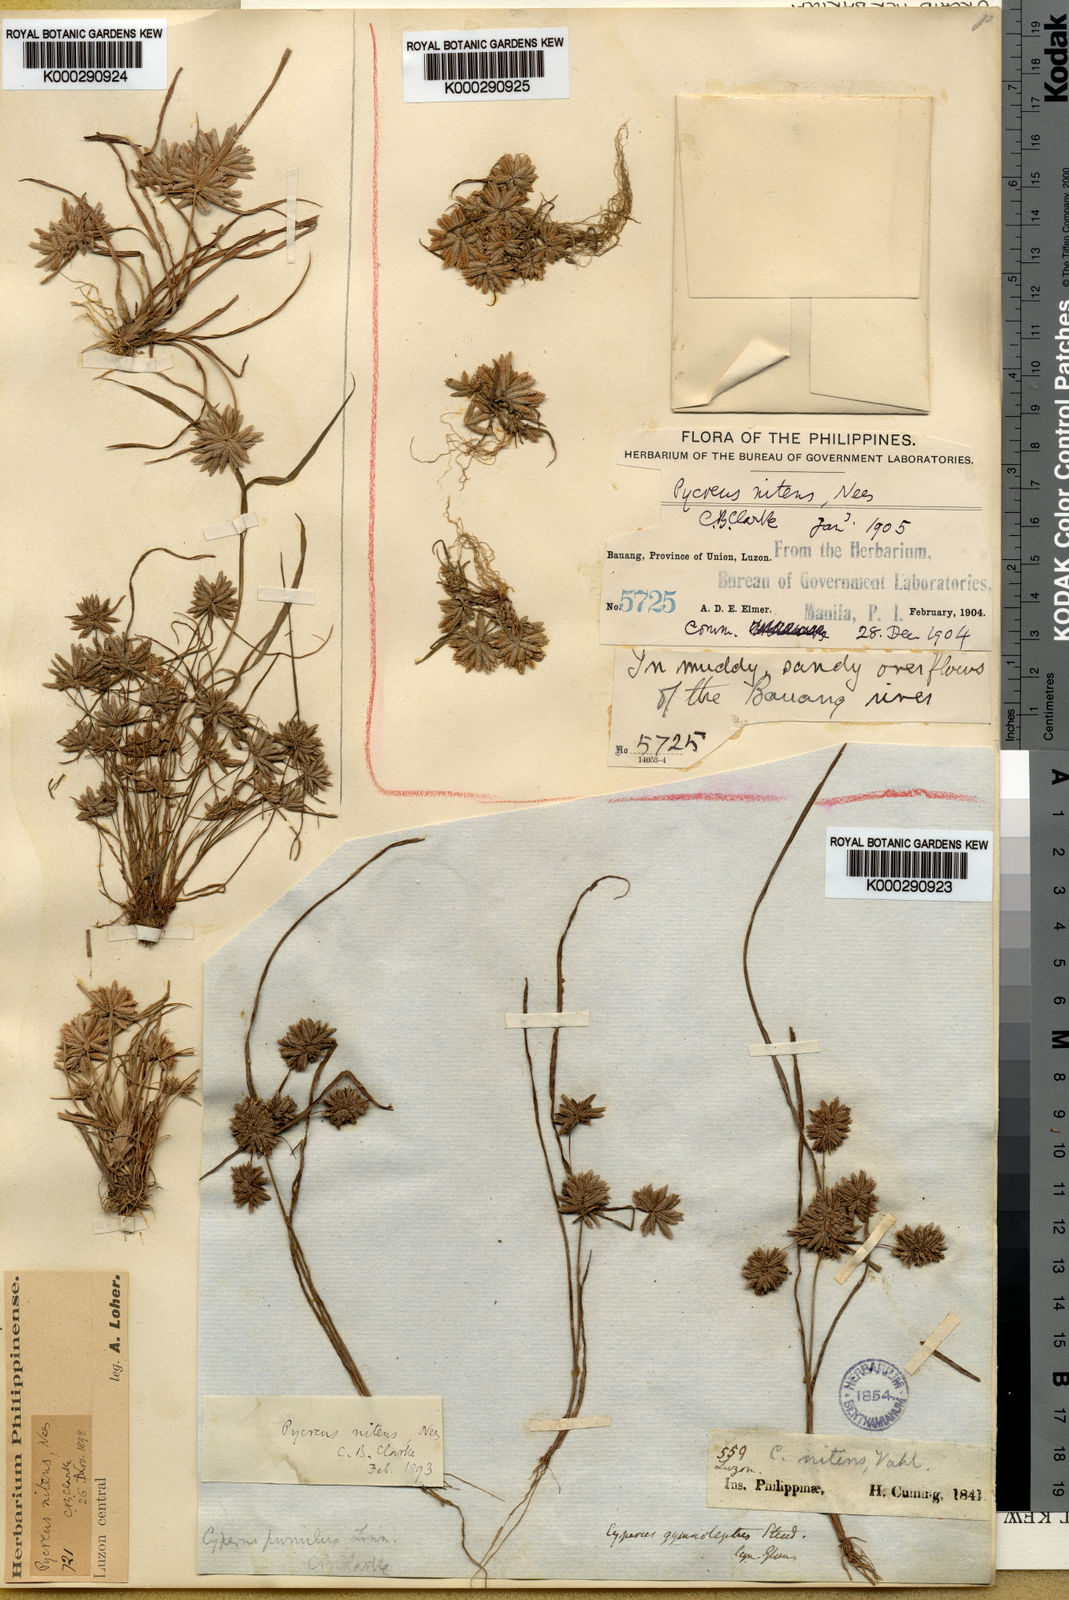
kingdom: Plantae
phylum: Tracheophyta
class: Liliopsida
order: Poales
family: Cyperaceae
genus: Cyperus
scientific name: Cyperus
